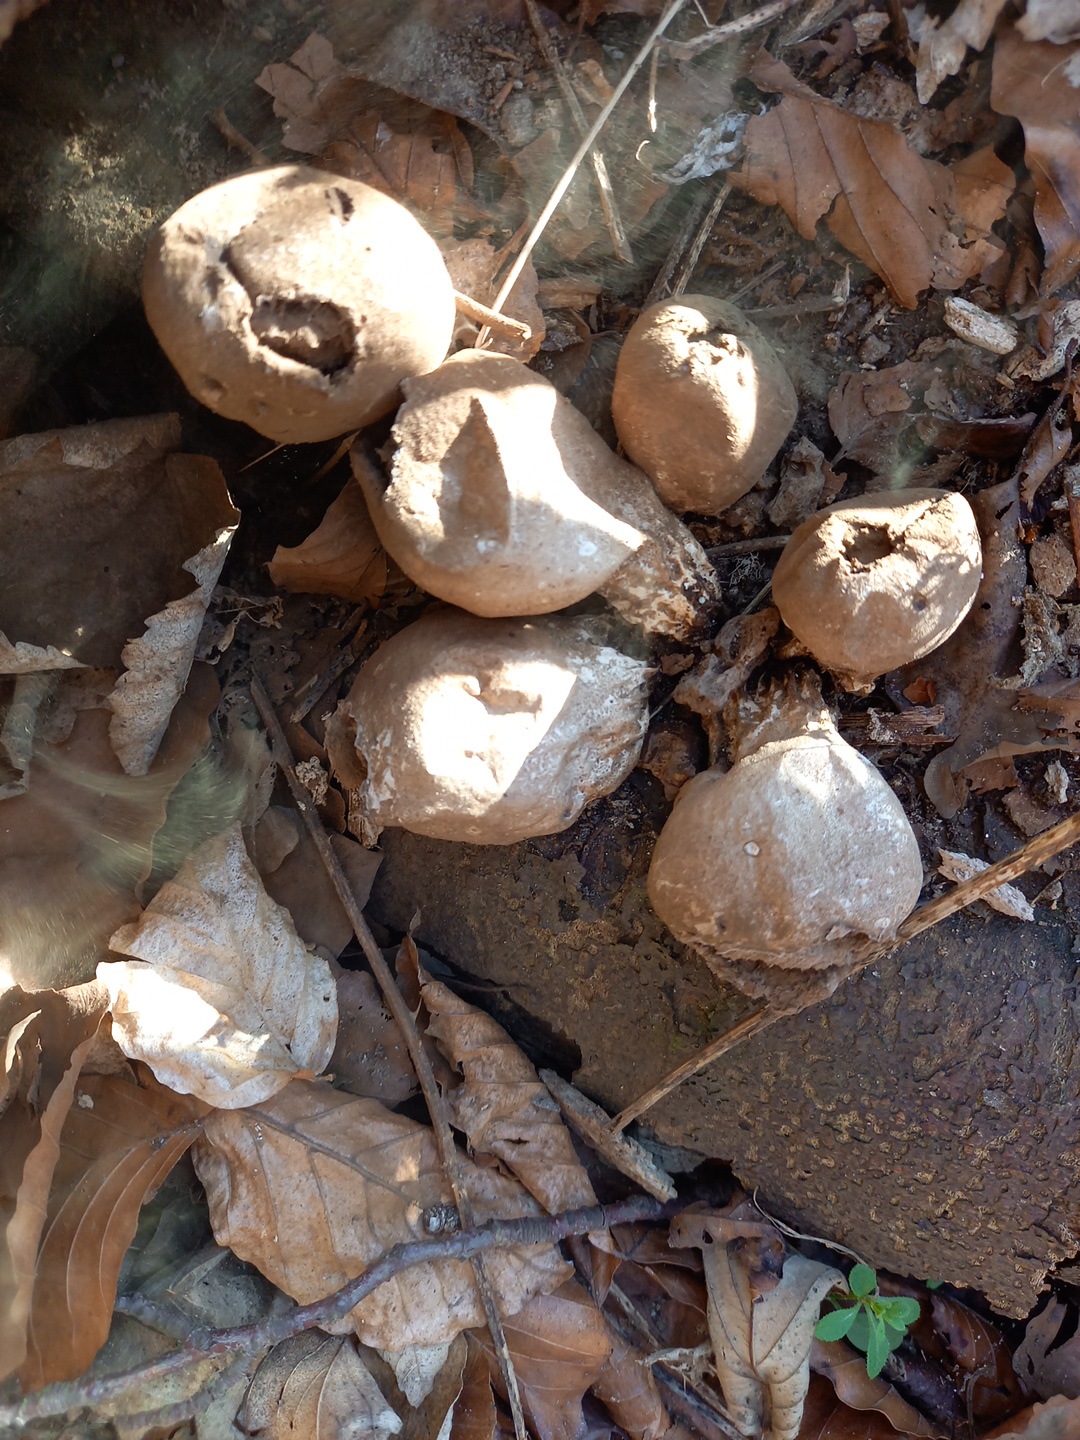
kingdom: Fungi
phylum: Basidiomycota
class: Agaricomycetes
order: Agaricales
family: Lycoperdaceae
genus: Apioperdon
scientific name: Apioperdon pyriforme
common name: pære-støvbold
